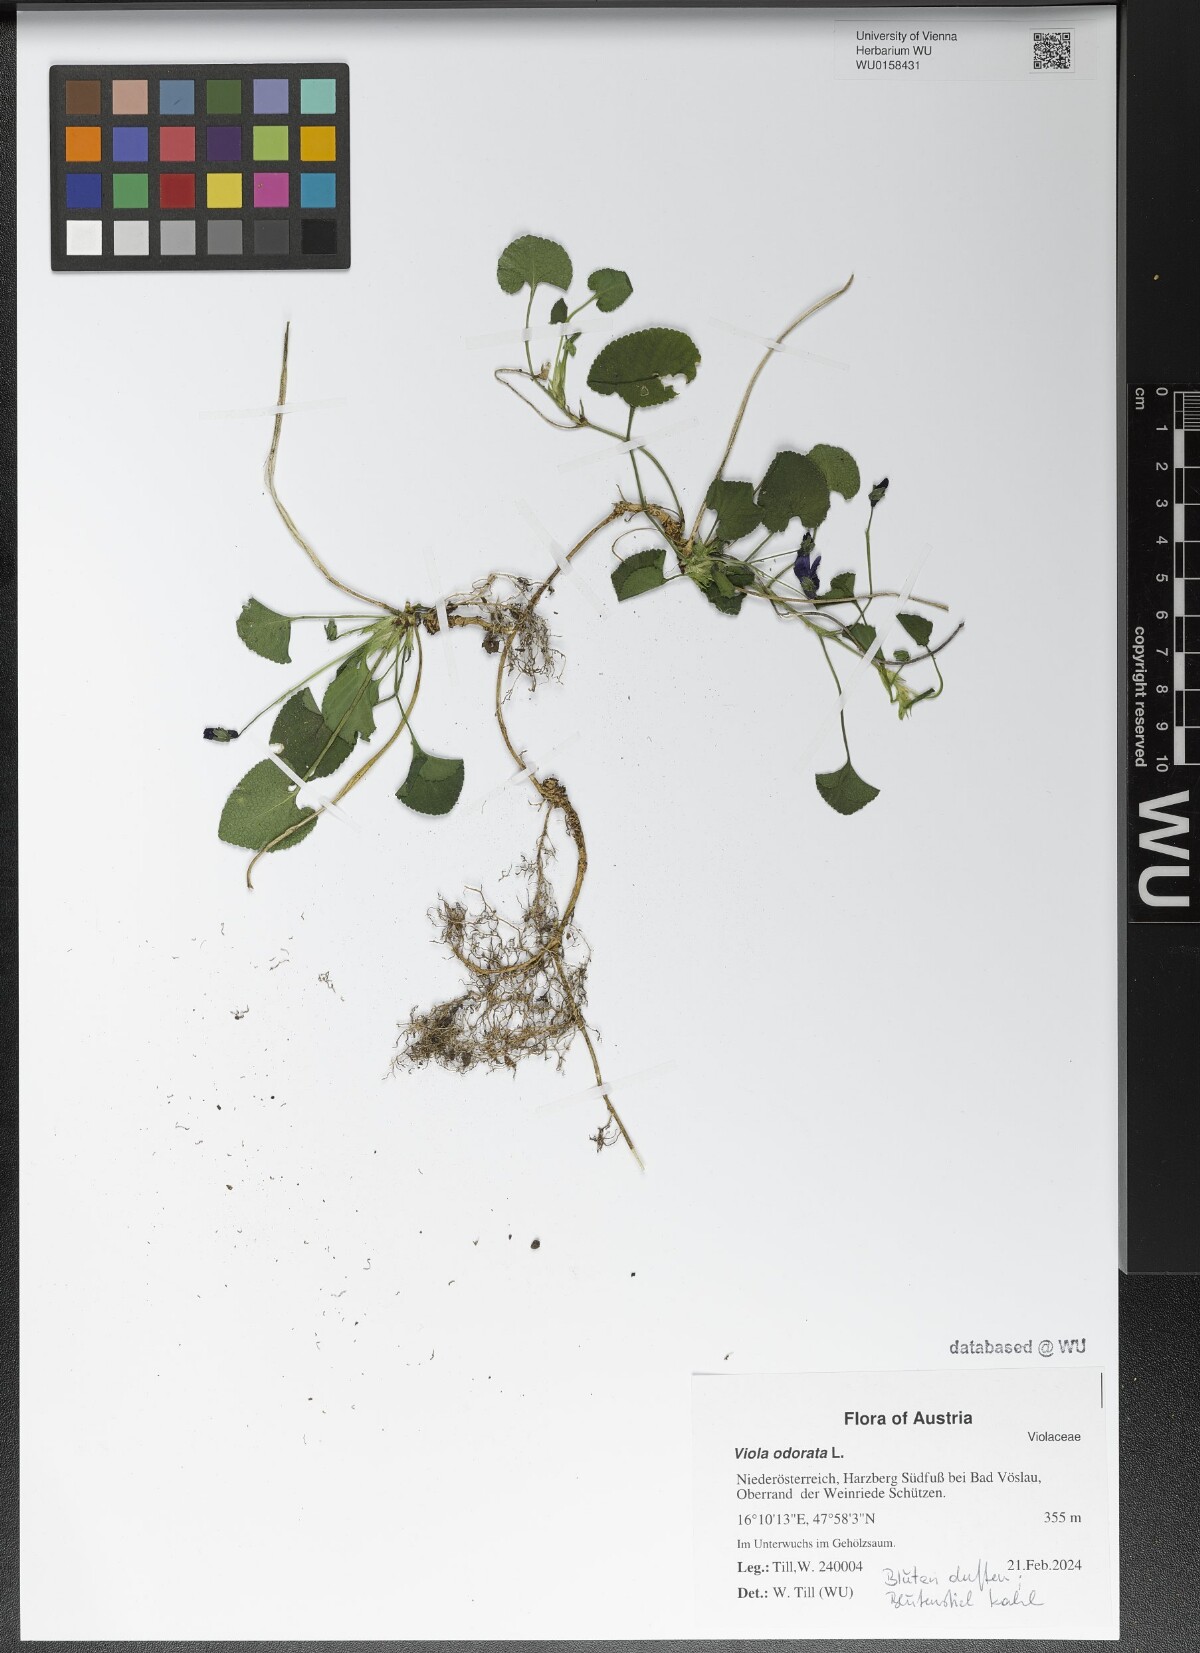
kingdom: Plantae
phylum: Tracheophyta
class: Magnoliopsida
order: Malpighiales
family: Violaceae
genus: Viola
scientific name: Viola odorata
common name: Sweet violet
